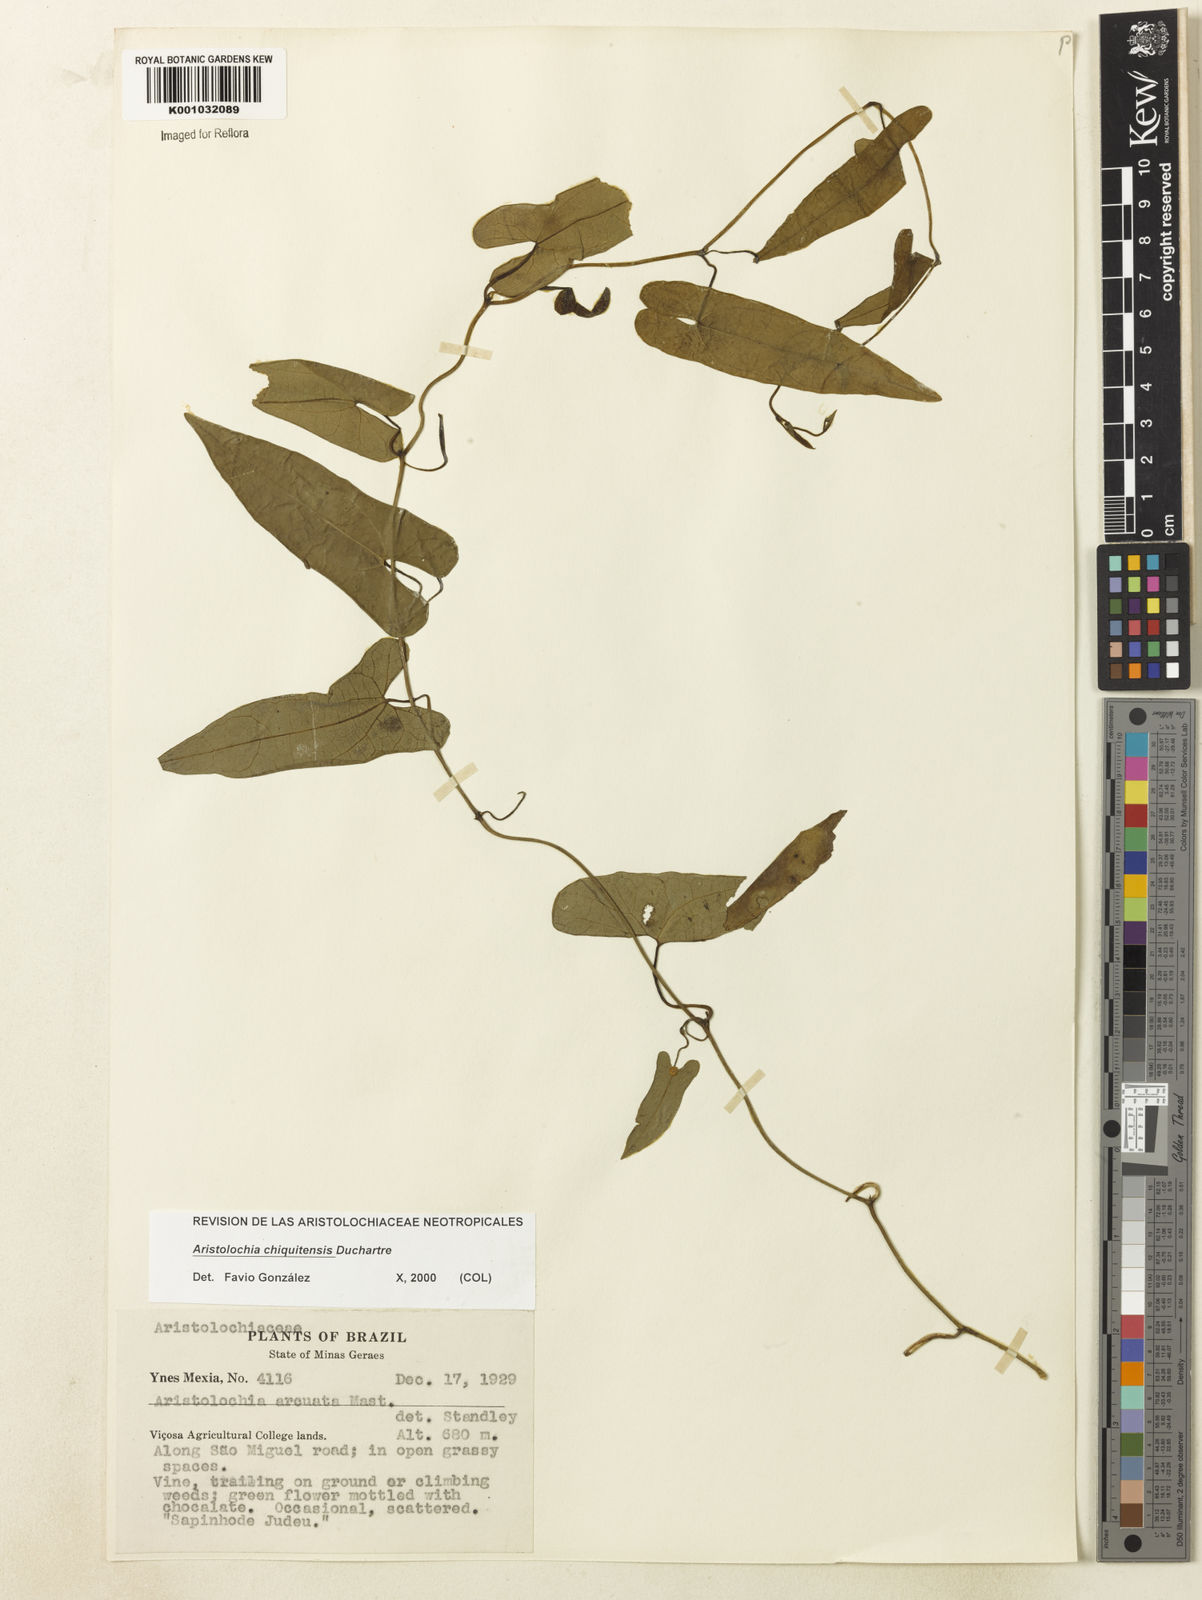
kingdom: Plantae
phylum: Tracheophyta
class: Magnoliopsida
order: Piperales
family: Aristolochiaceae
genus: Aristolochia
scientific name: Aristolochia chiquitensis
